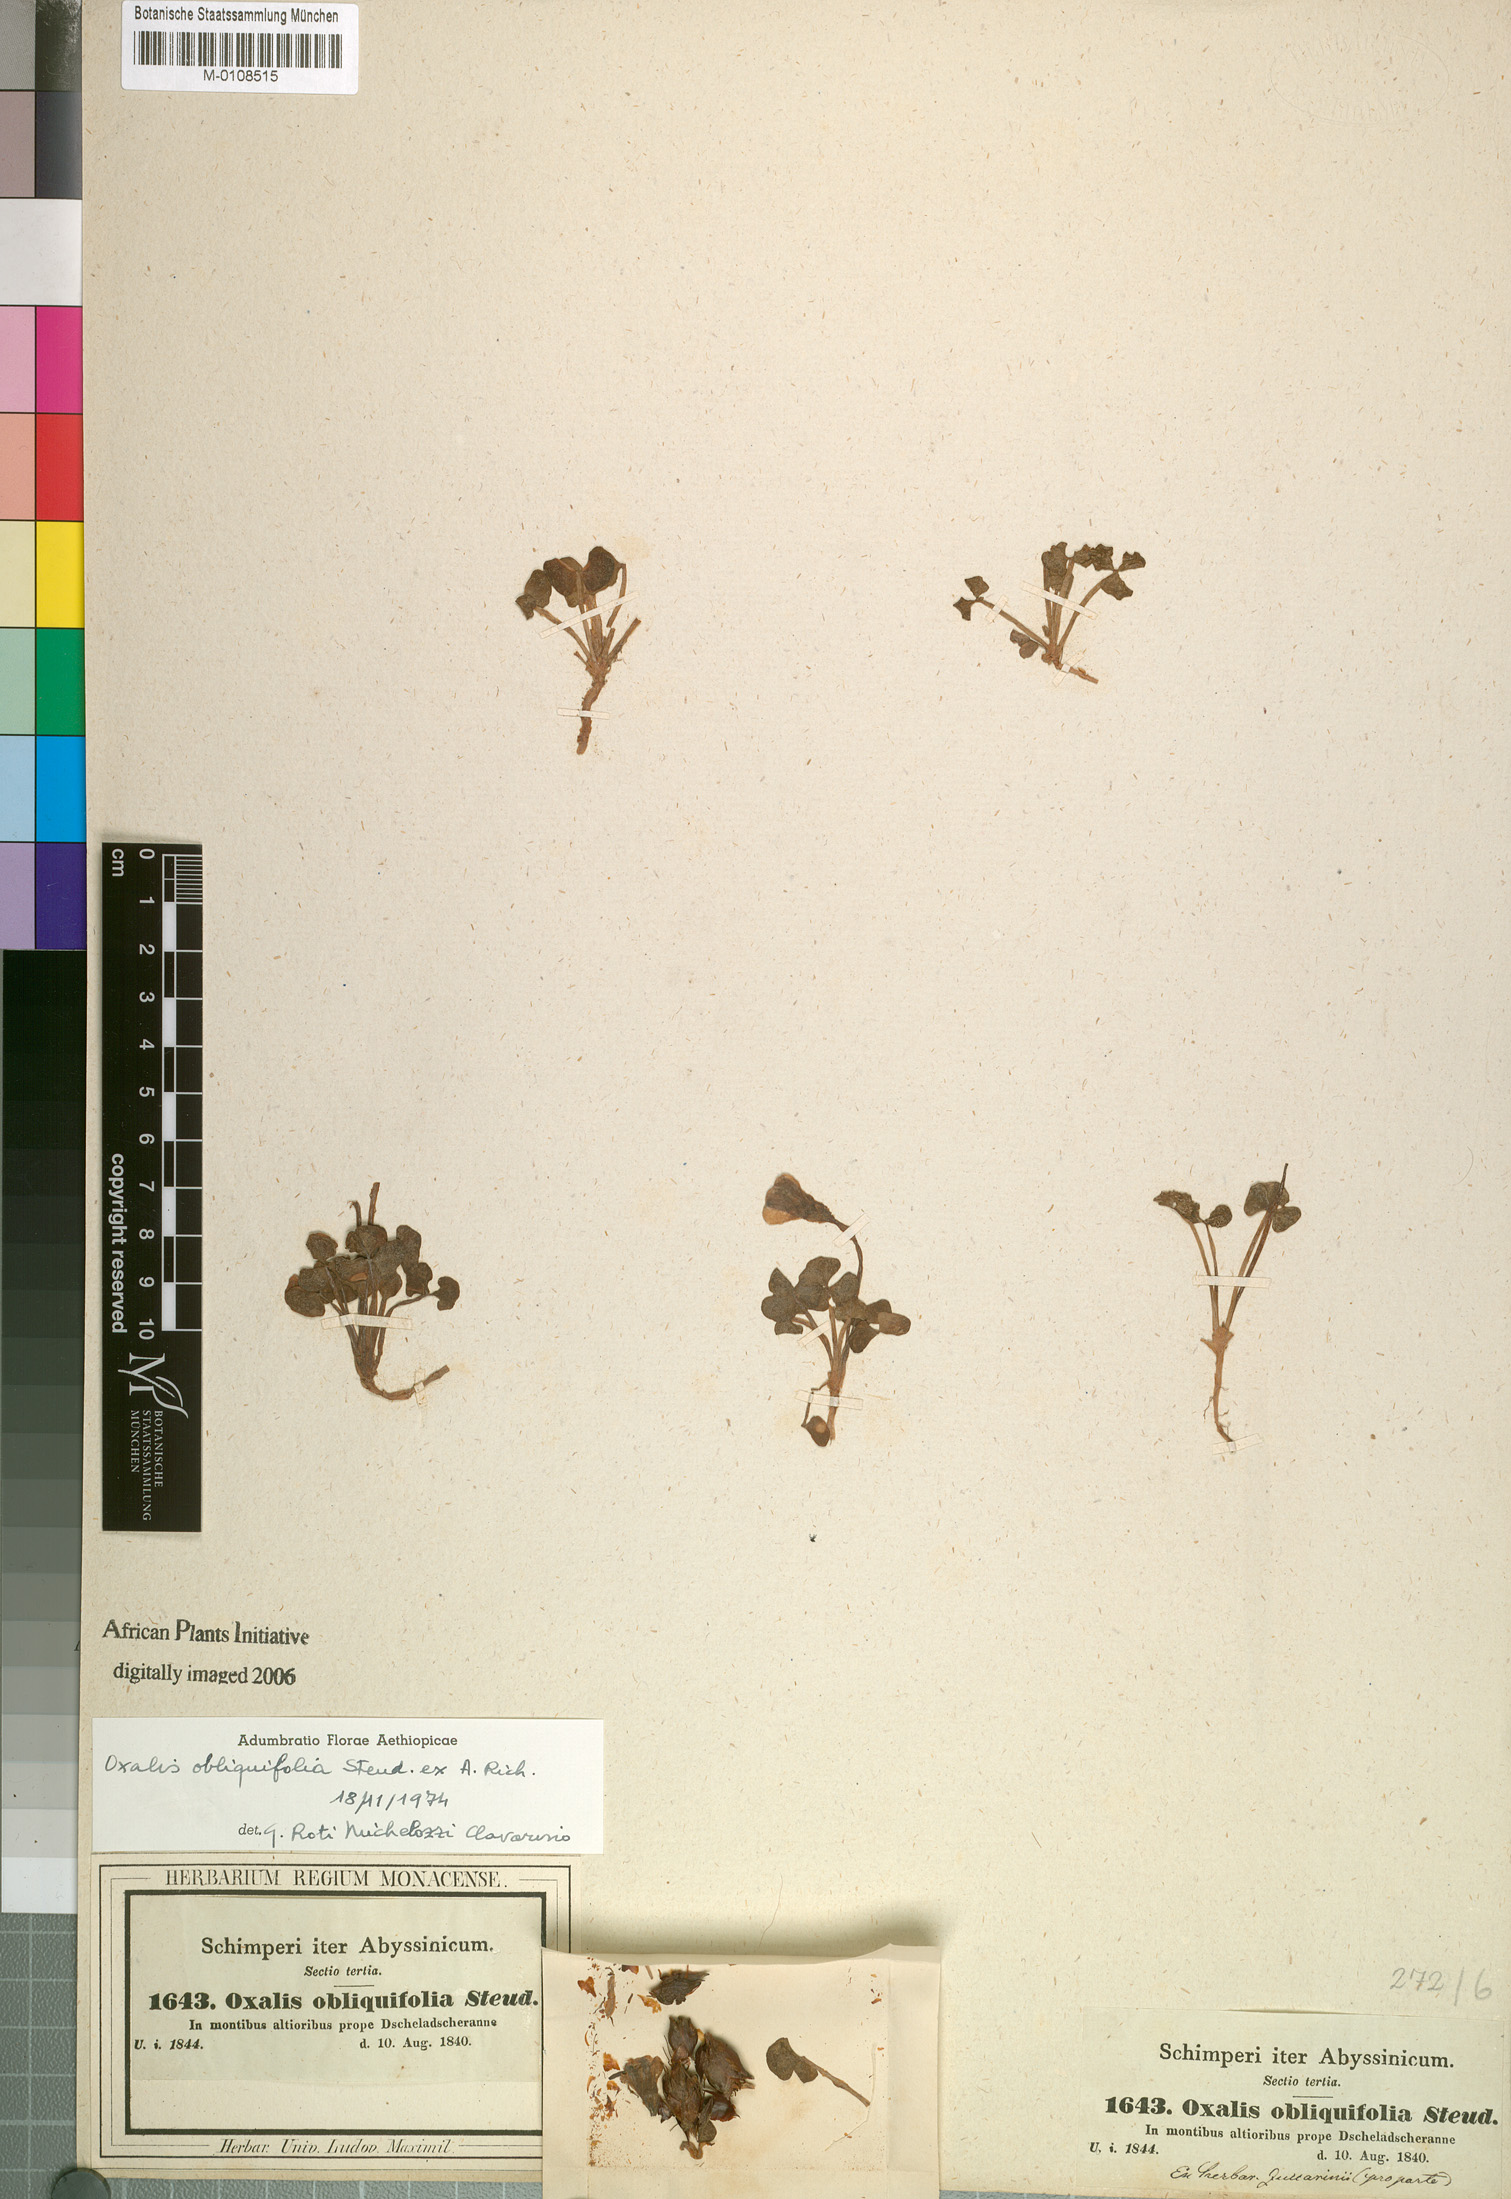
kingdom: Plantae
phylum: Tracheophyta
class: Magnoliopsida
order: Oxalidales
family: Oxalidaceae
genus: Oxalis
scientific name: Oxalis obliquifolia
